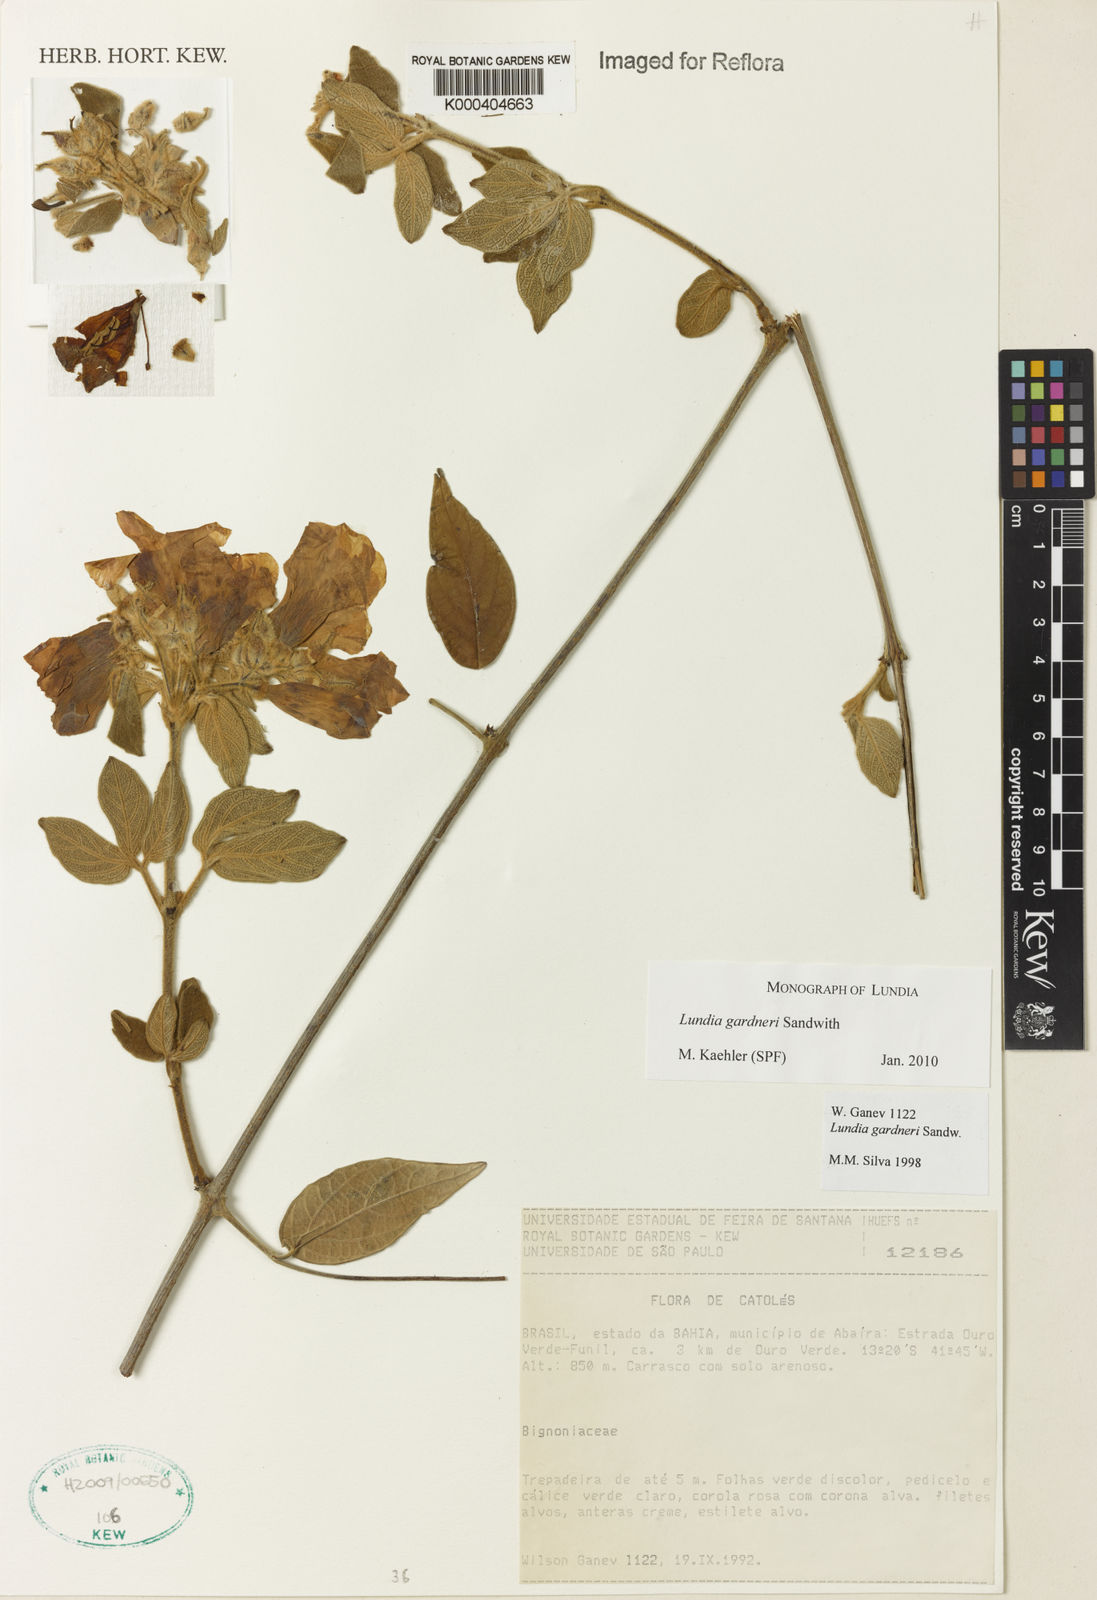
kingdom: Plantae
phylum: Tracheophyta
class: Magnoliopsida
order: Lamiales
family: Bignoniaceae
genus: Lundia
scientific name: Lundia gardneri
